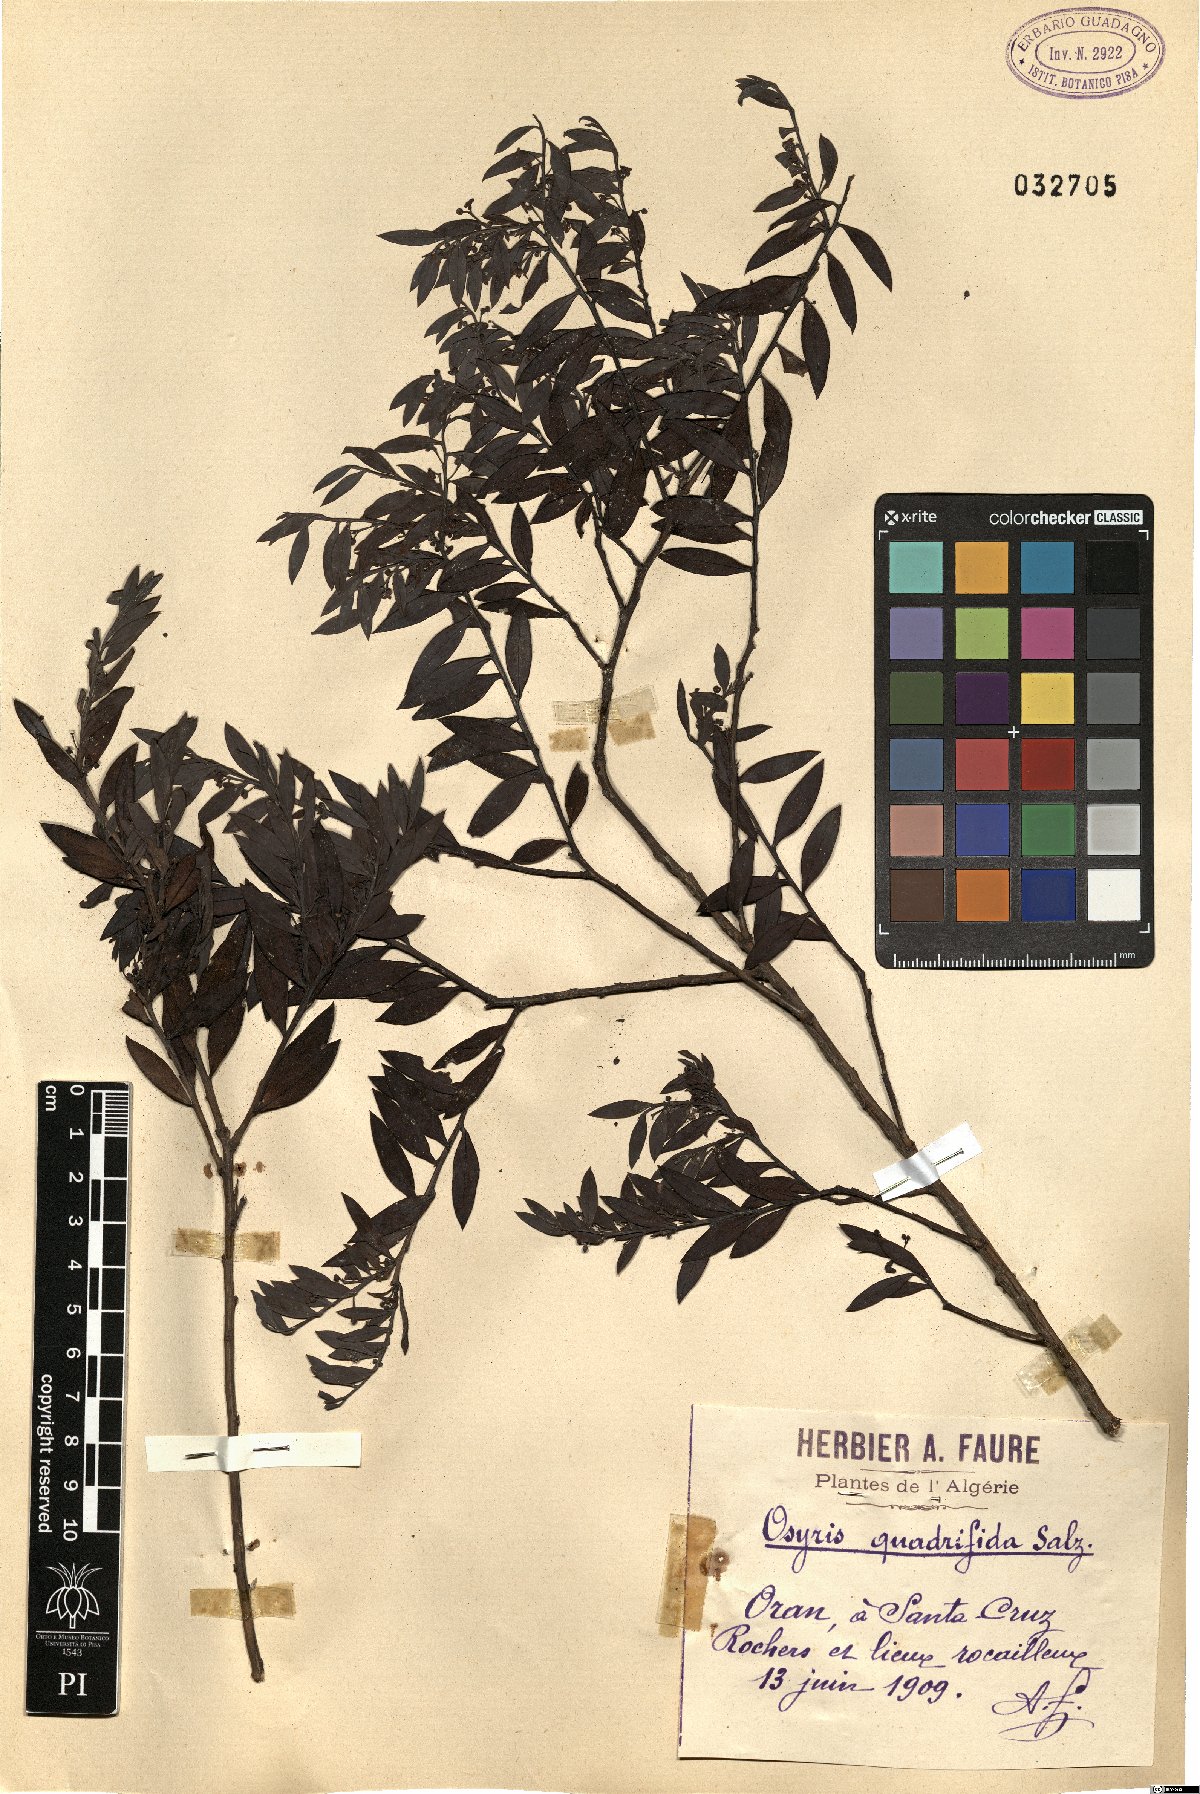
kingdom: Plantae
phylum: Tracheophyta
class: Magnoliopsida
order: Santalales
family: Santalaceae
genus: Osyris
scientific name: Osyris quadripartita
